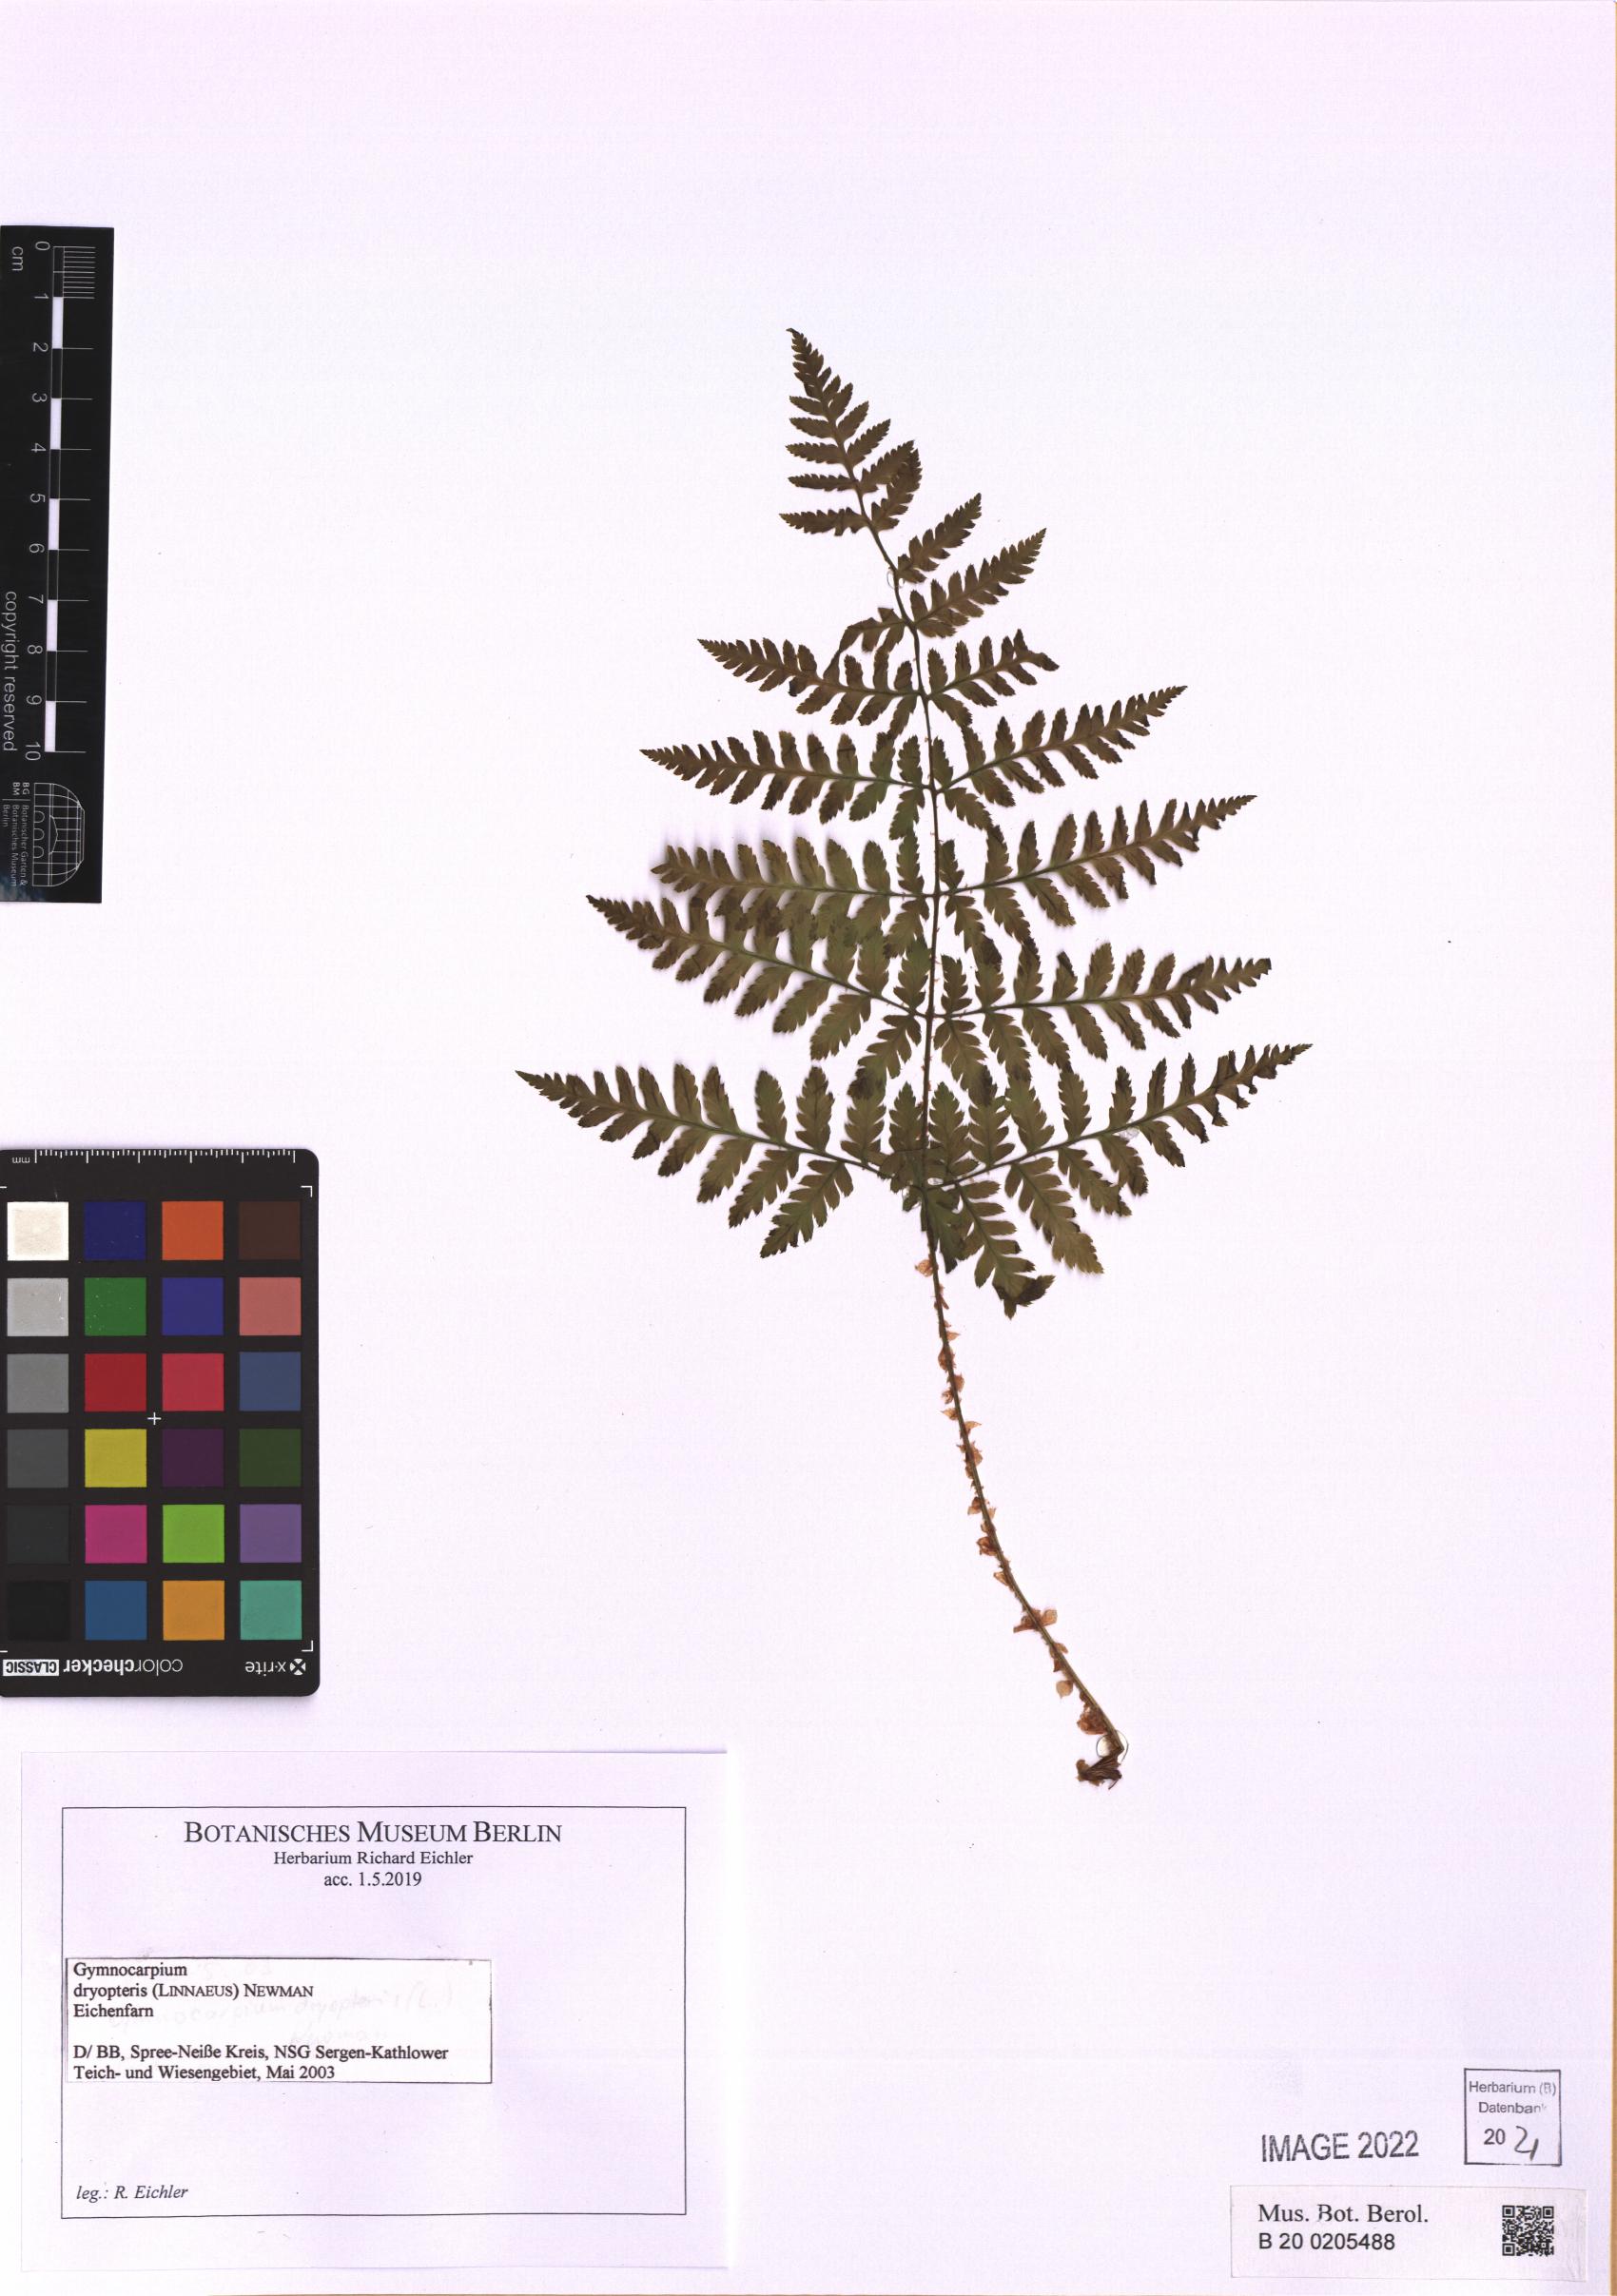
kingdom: Plantae
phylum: Tracheophyta
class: Polypodiopsida
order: Polypodiales
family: Dryopteridaceae
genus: Dryopteris
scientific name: Dryopteris carthusiana
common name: Narrow buckler-fern
